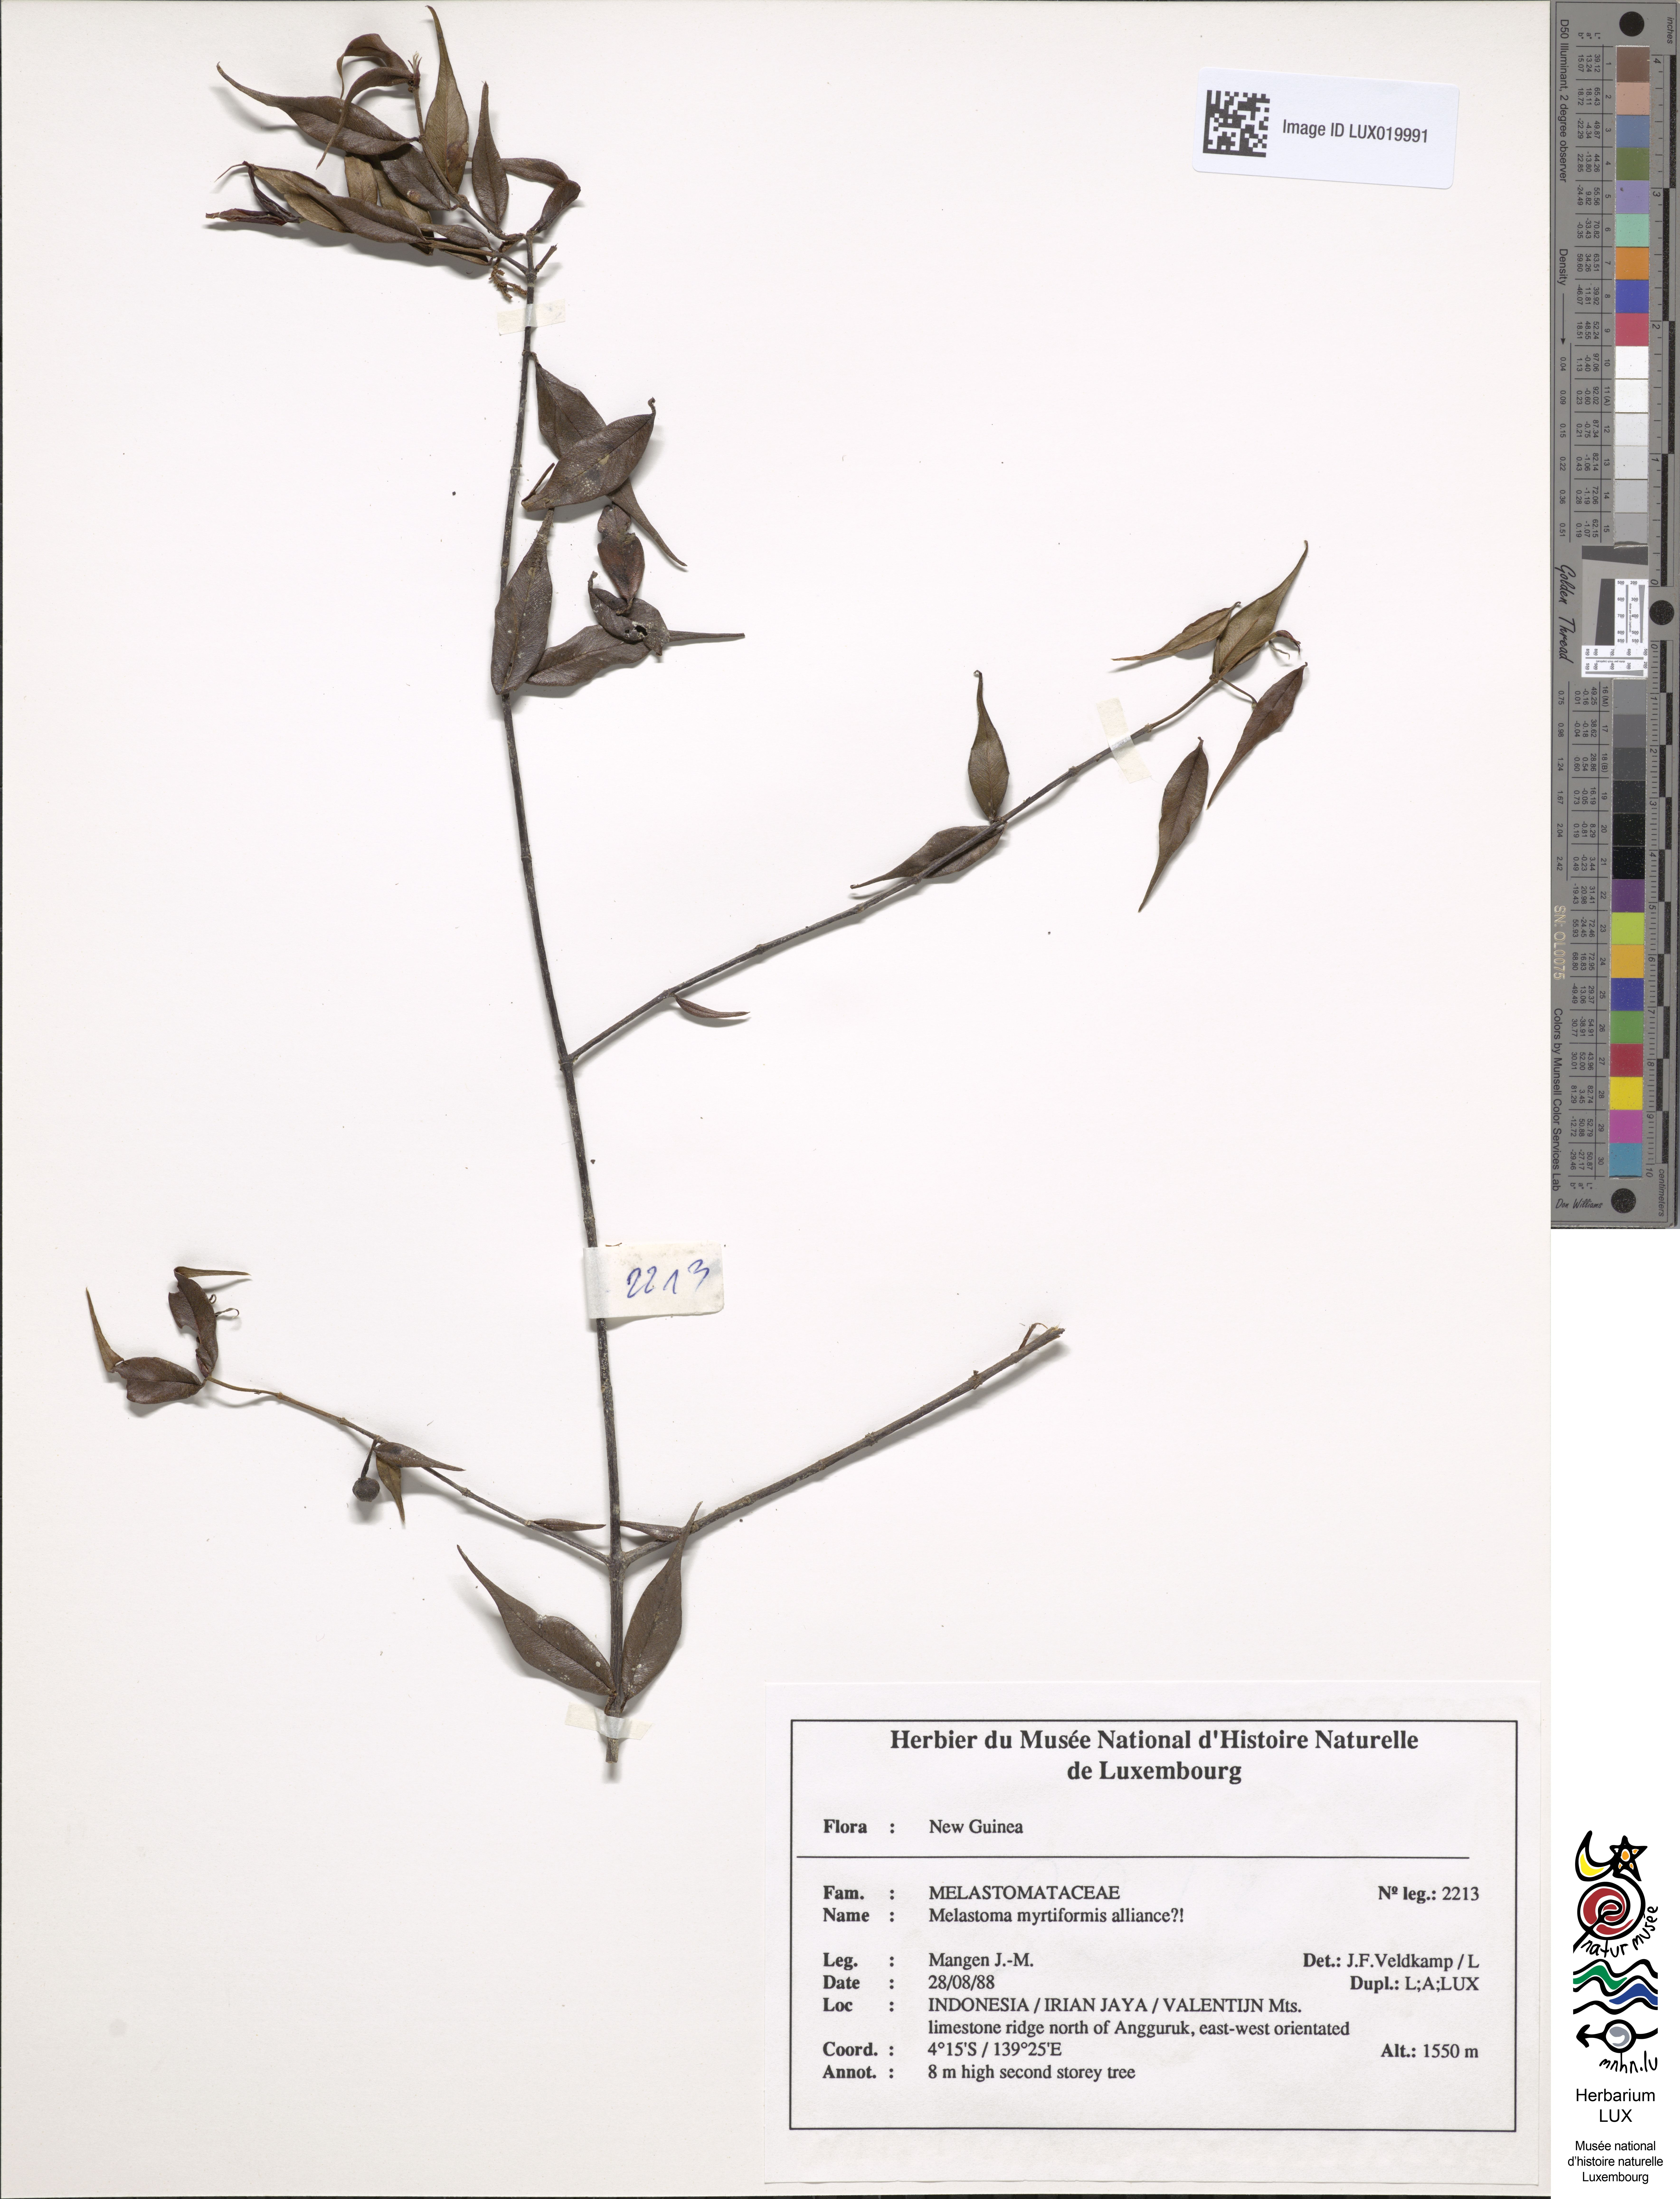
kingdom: Plantae
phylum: Tracheophyta
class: Magnoliopsida
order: Myrtales
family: Melastomataceae
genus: Melastoma
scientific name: Melastoma
